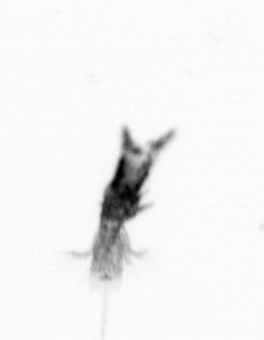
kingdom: Animalia
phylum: Arthropoda
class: Copepoda
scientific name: Copepoda
